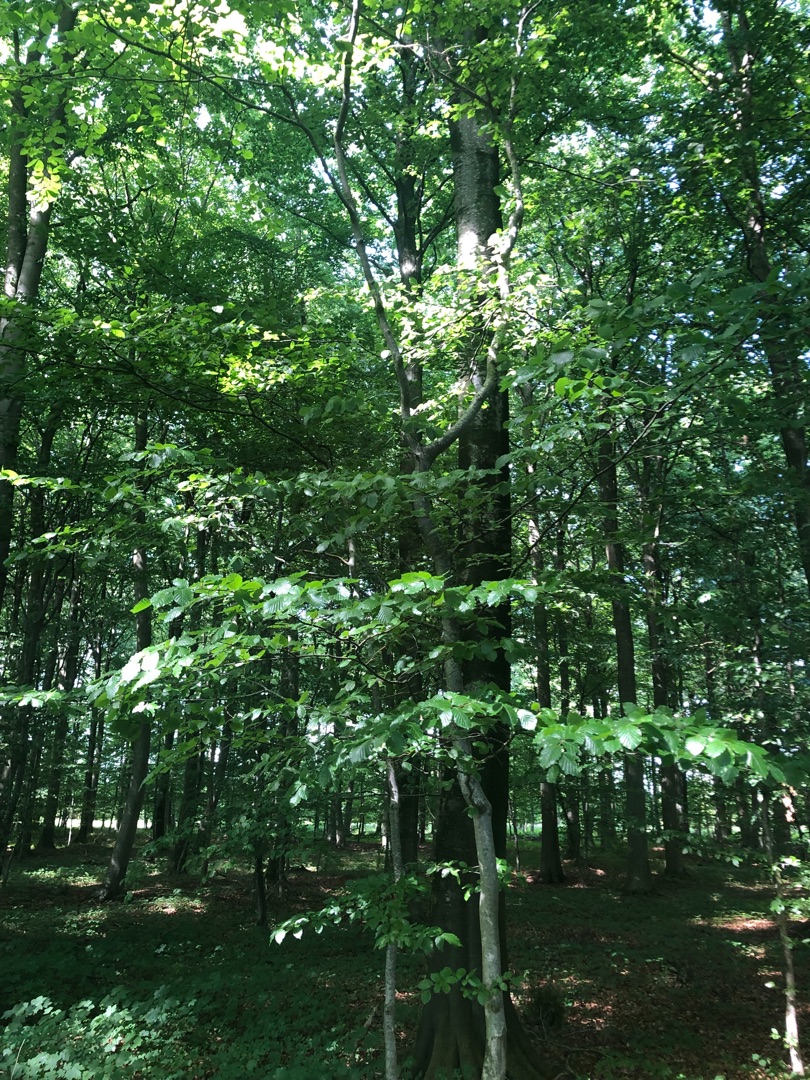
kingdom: Plantae
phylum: Tracheophyta
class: Magnoliopsida
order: Fagales
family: Fagaceae
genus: Fagus
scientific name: Fagus sylvatica
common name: Bøg
